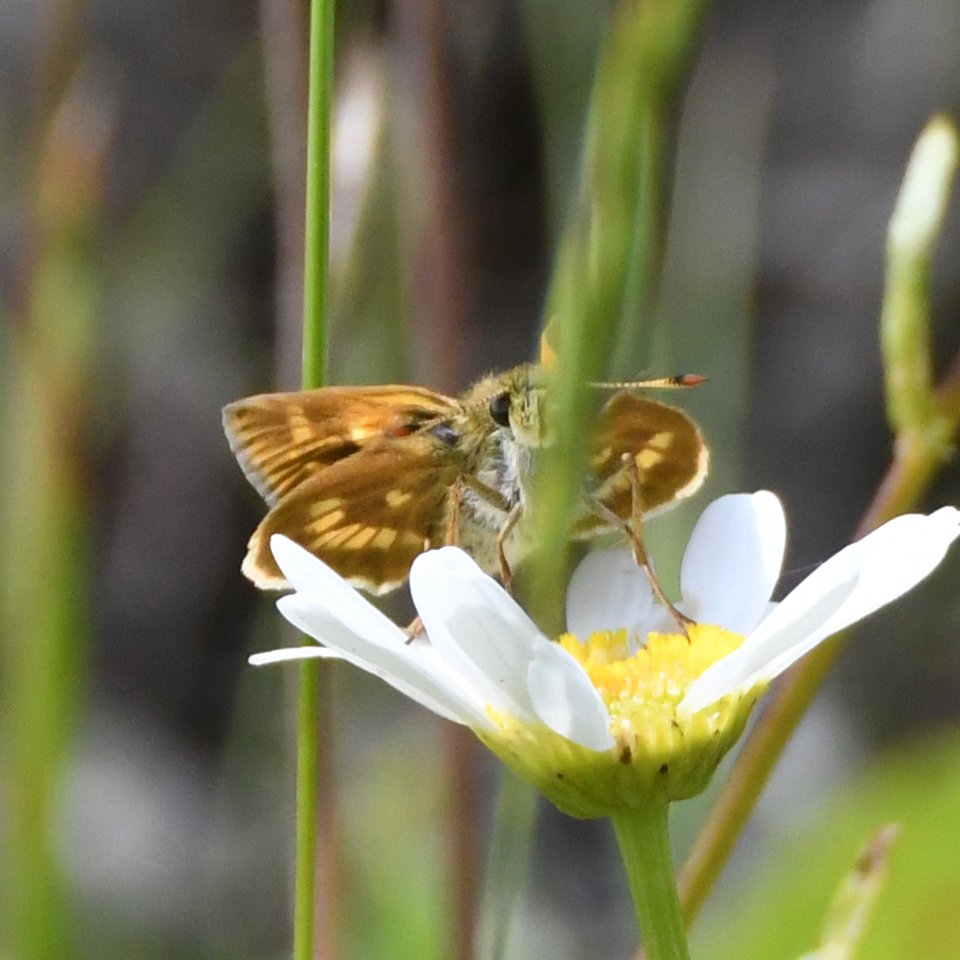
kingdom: Animalia
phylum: Arthropoda
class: Insecta
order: Lepidoptera
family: Hesperiidae
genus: Polites
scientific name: Polites
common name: Long Dash Skipper
